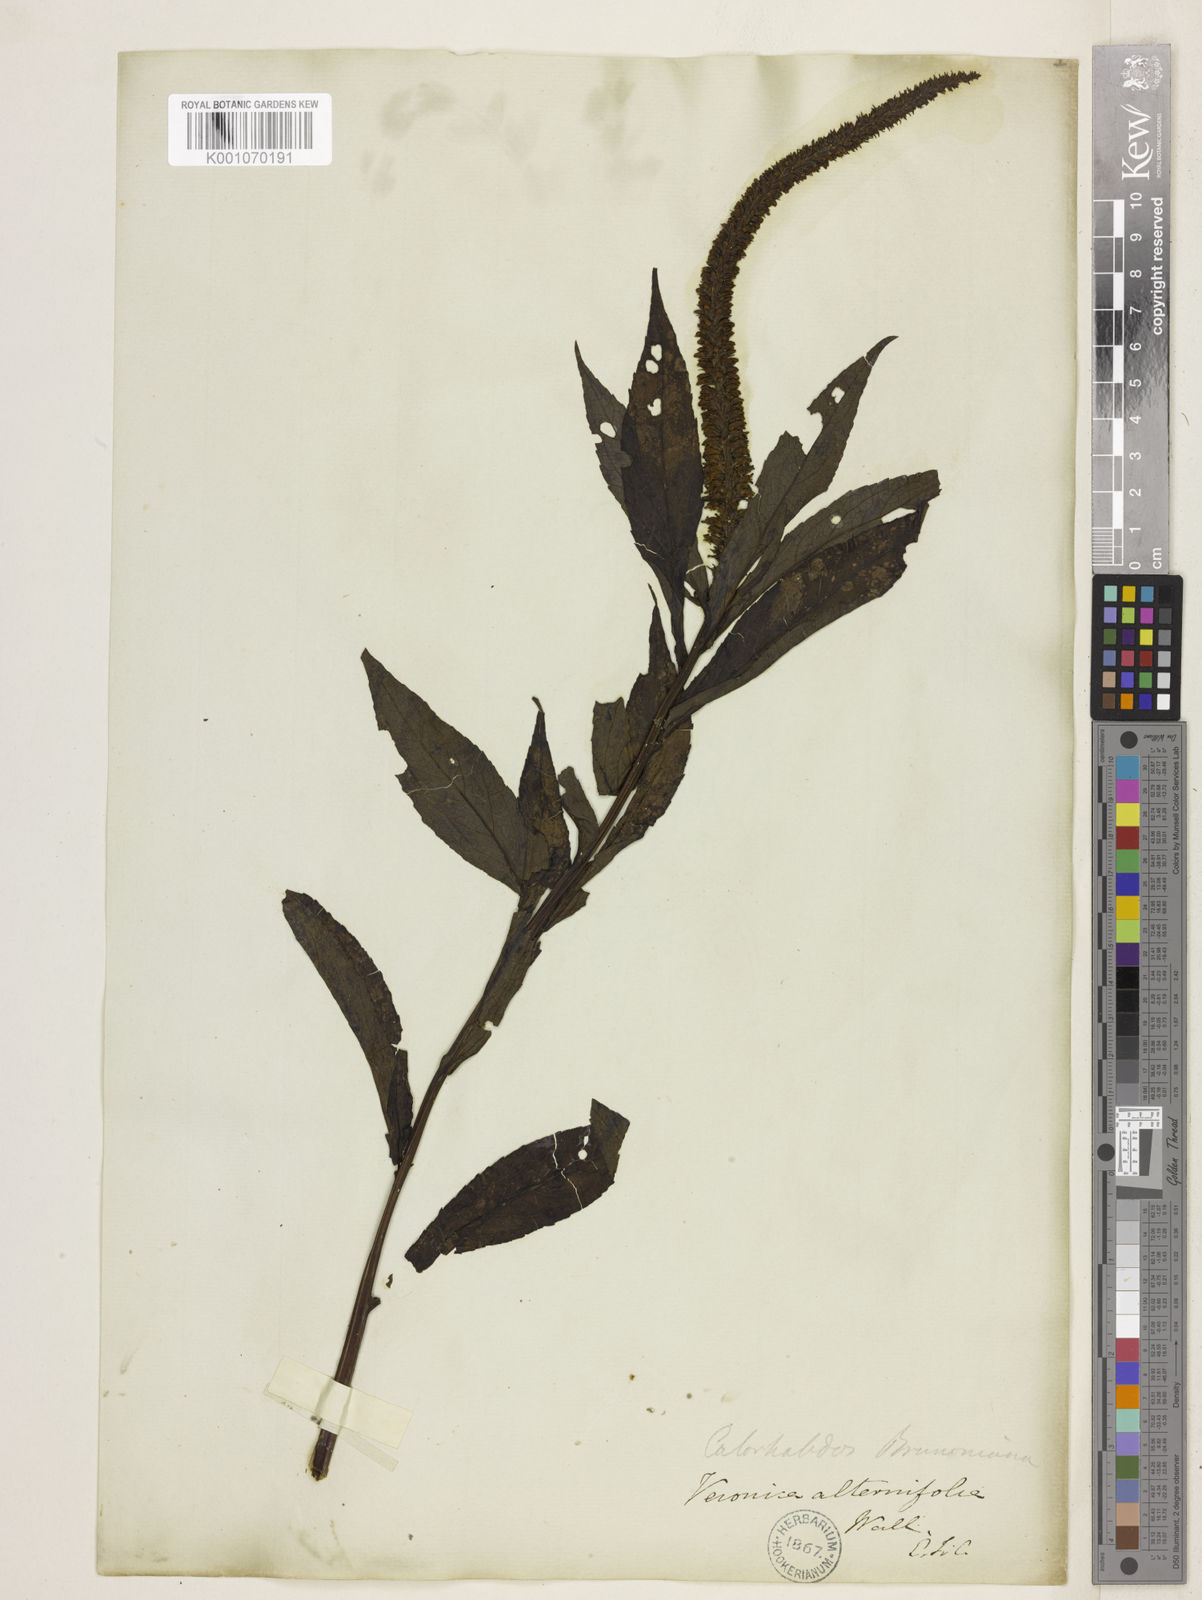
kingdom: Plantae
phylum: Tracheophyta
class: Magnoliopsida
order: Lamiales
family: Plantaginaceae
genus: Veronicastrum
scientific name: Veronicastrum brunonianum
